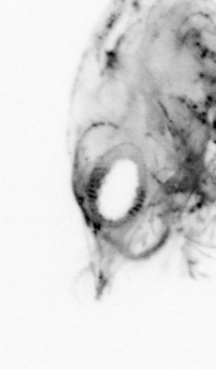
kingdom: Animalia
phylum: Arthropoda
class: Malacostraca
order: Decapoda
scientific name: Decapoda
